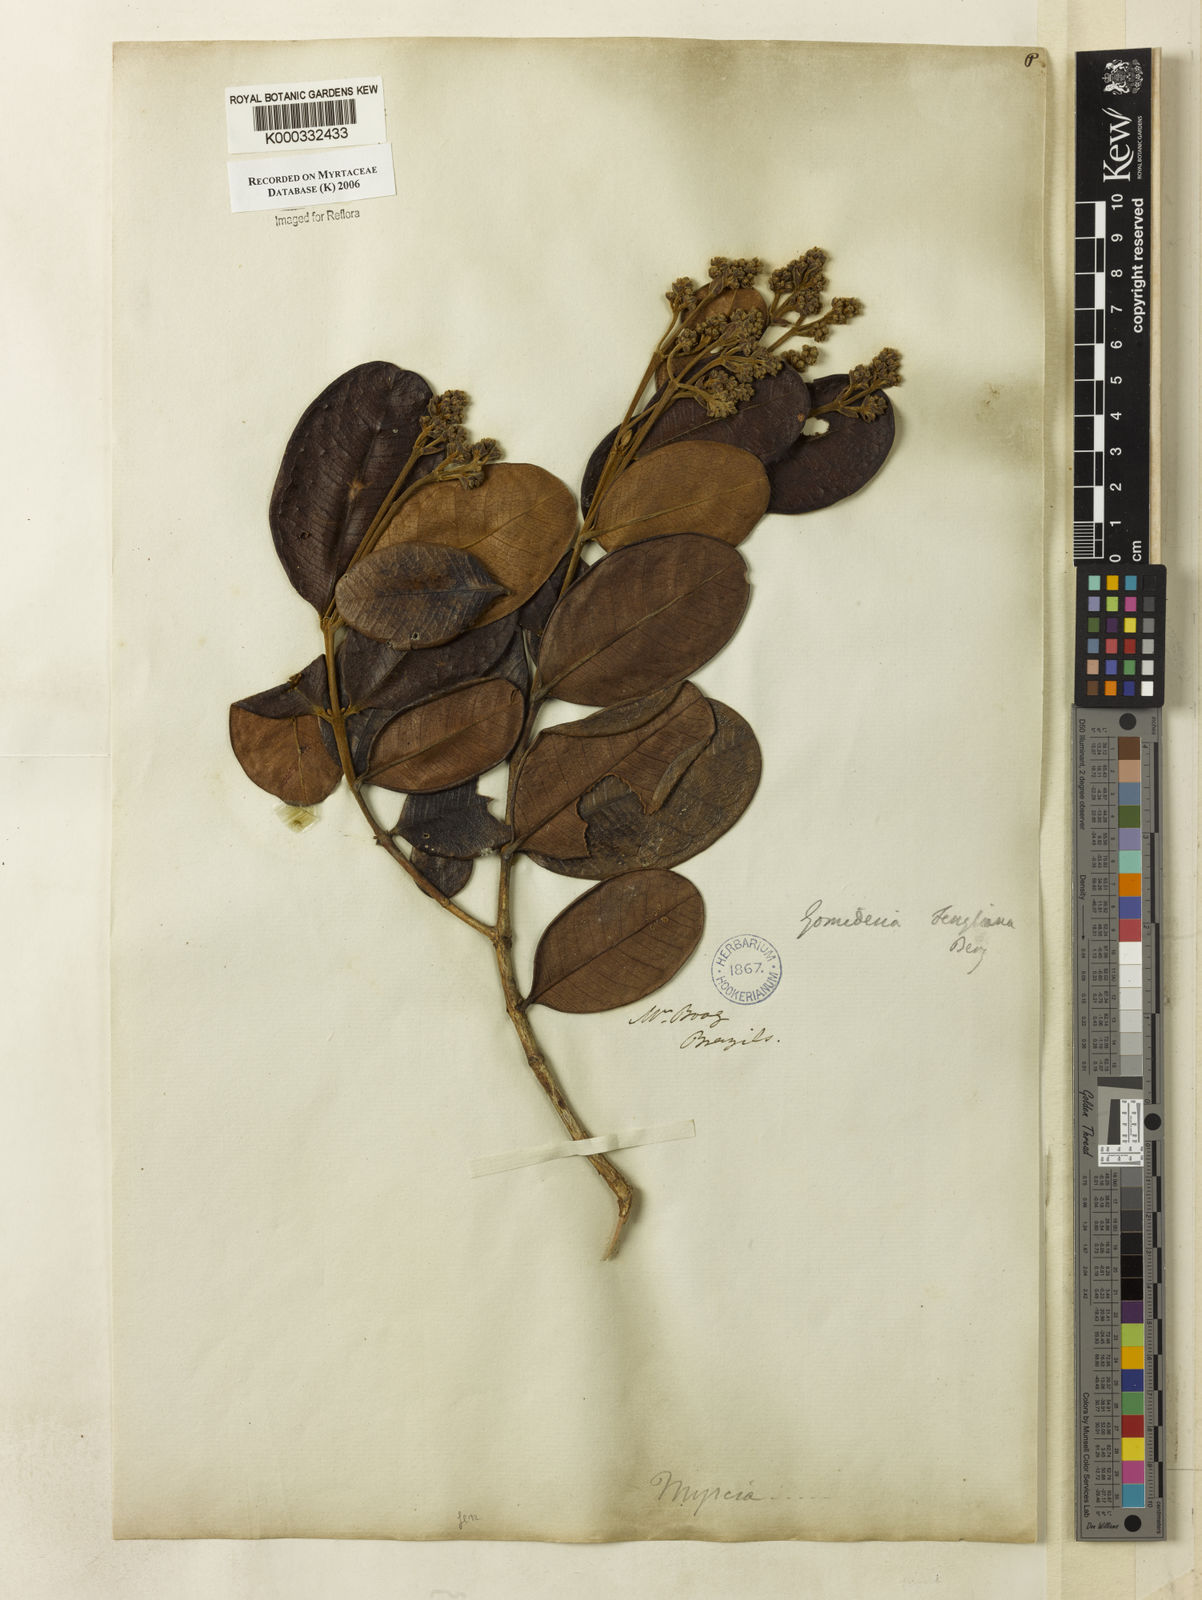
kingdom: Plantae
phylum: Tracheophyta
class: Magnoliopsida
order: Myrtales
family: Myrtaceae
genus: Myrcia
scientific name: Myrcia ilheosensis
